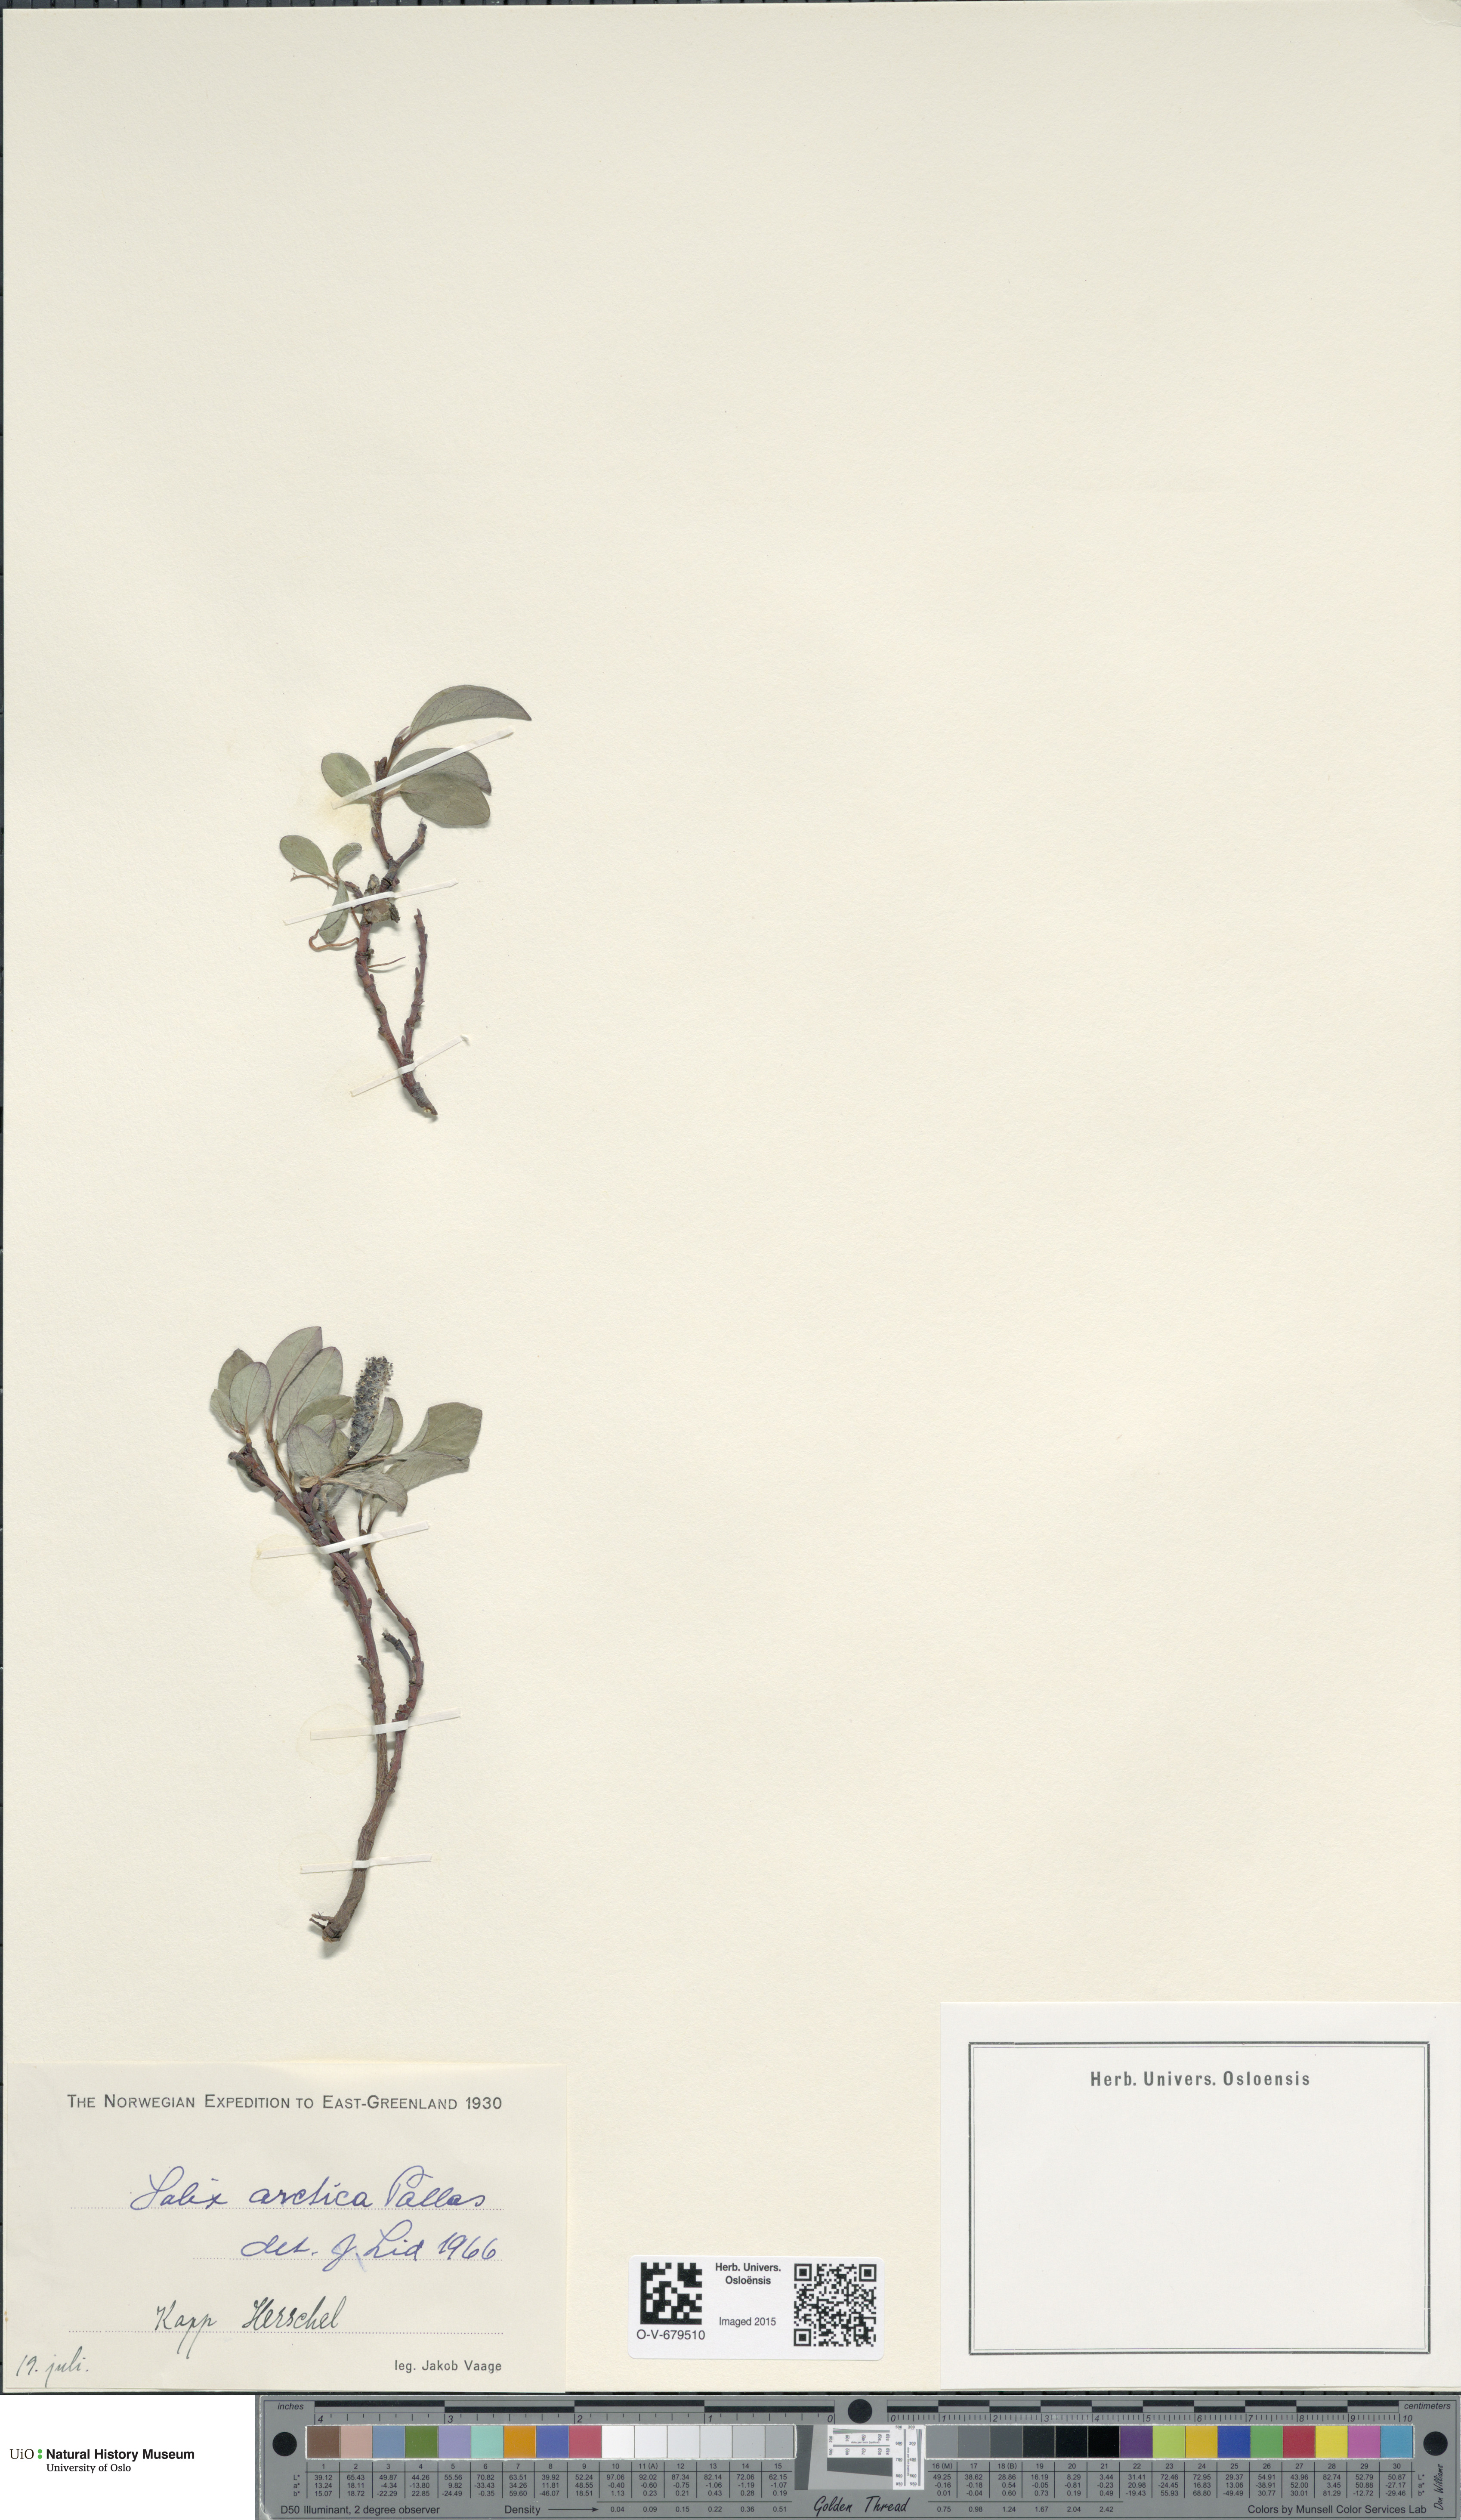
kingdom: Plantae
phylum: Tracheophyta
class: Magnoliopsida
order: Malpighiales
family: Salicaceae
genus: Salix
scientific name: Salix arctica
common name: Arctic willow
